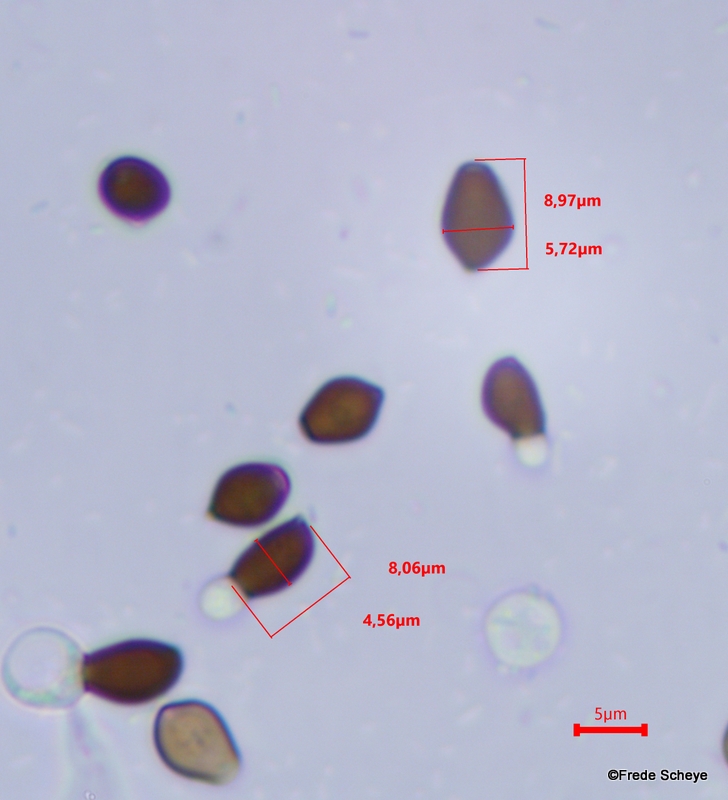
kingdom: Fungi
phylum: Basidiomycota
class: Agaricomycetes
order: Agaricales
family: Psathyrellaceae
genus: Coprinellus
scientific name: Coprinellus micaceus
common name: glimmer-blækhat
